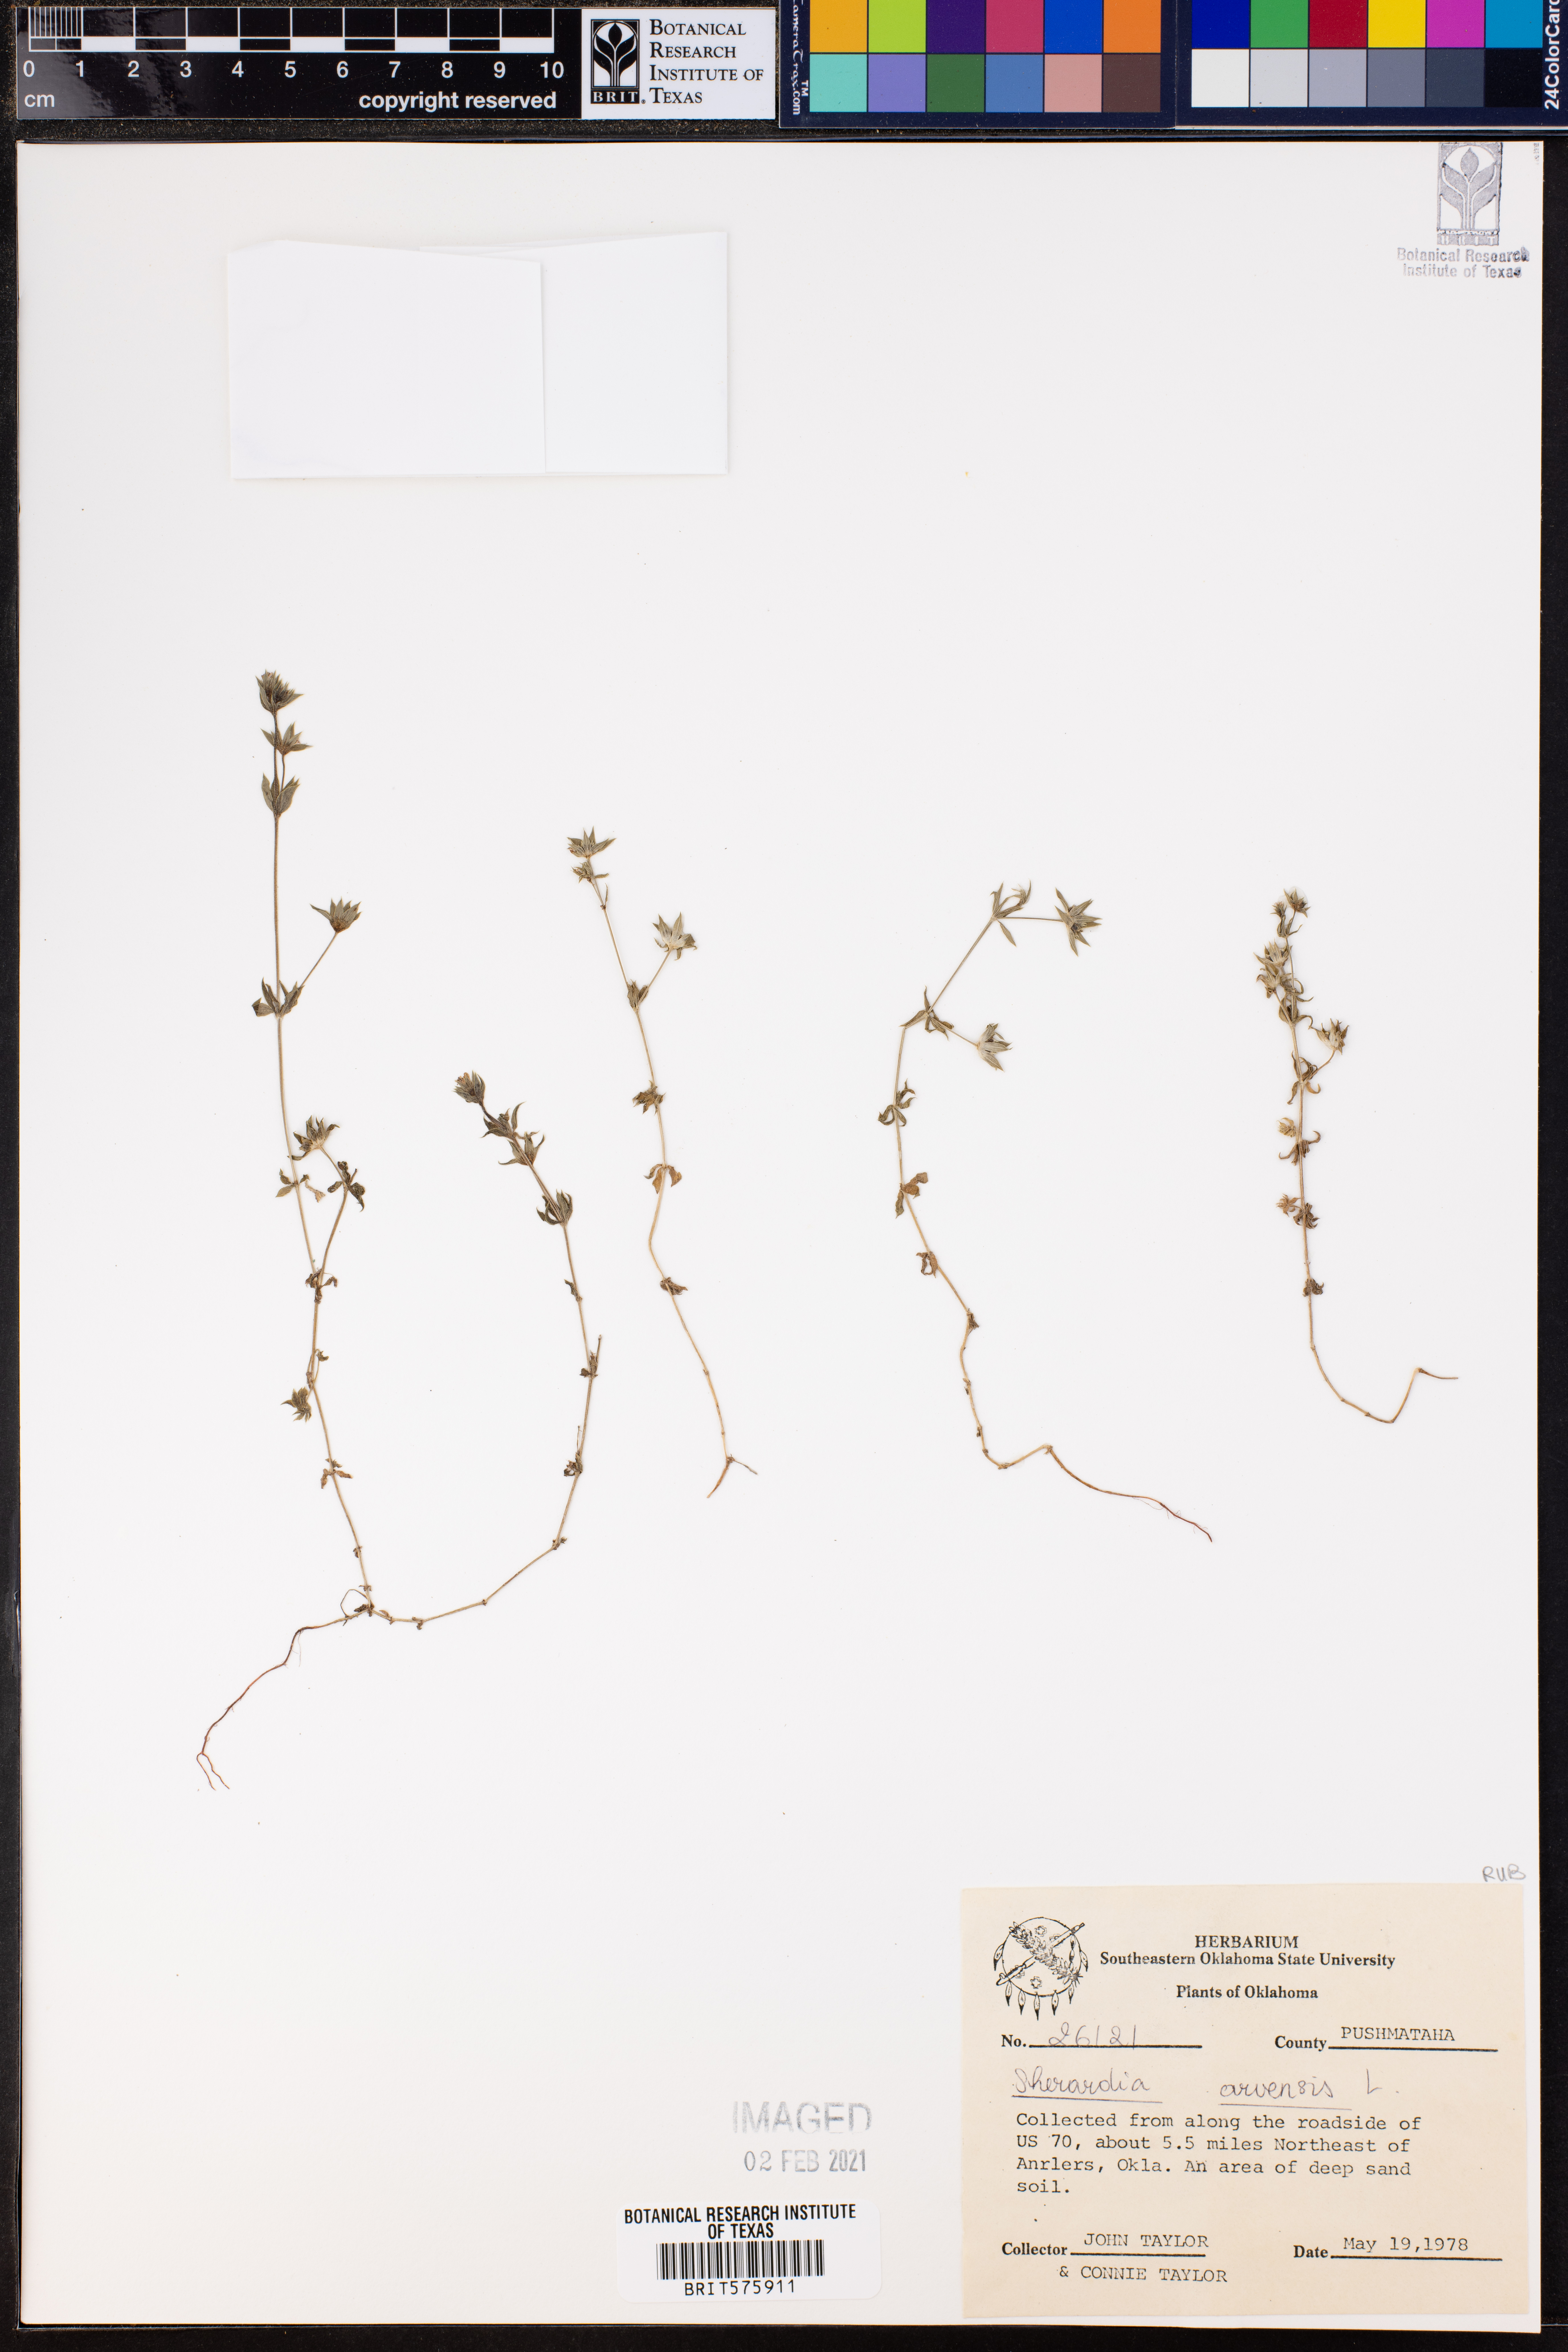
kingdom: Plantae
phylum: Tracheophyta
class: Magnoliopsida
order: Gentianales
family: Rubiaceae
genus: Sherardia
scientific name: Sherardia arvensis
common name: Field madder
